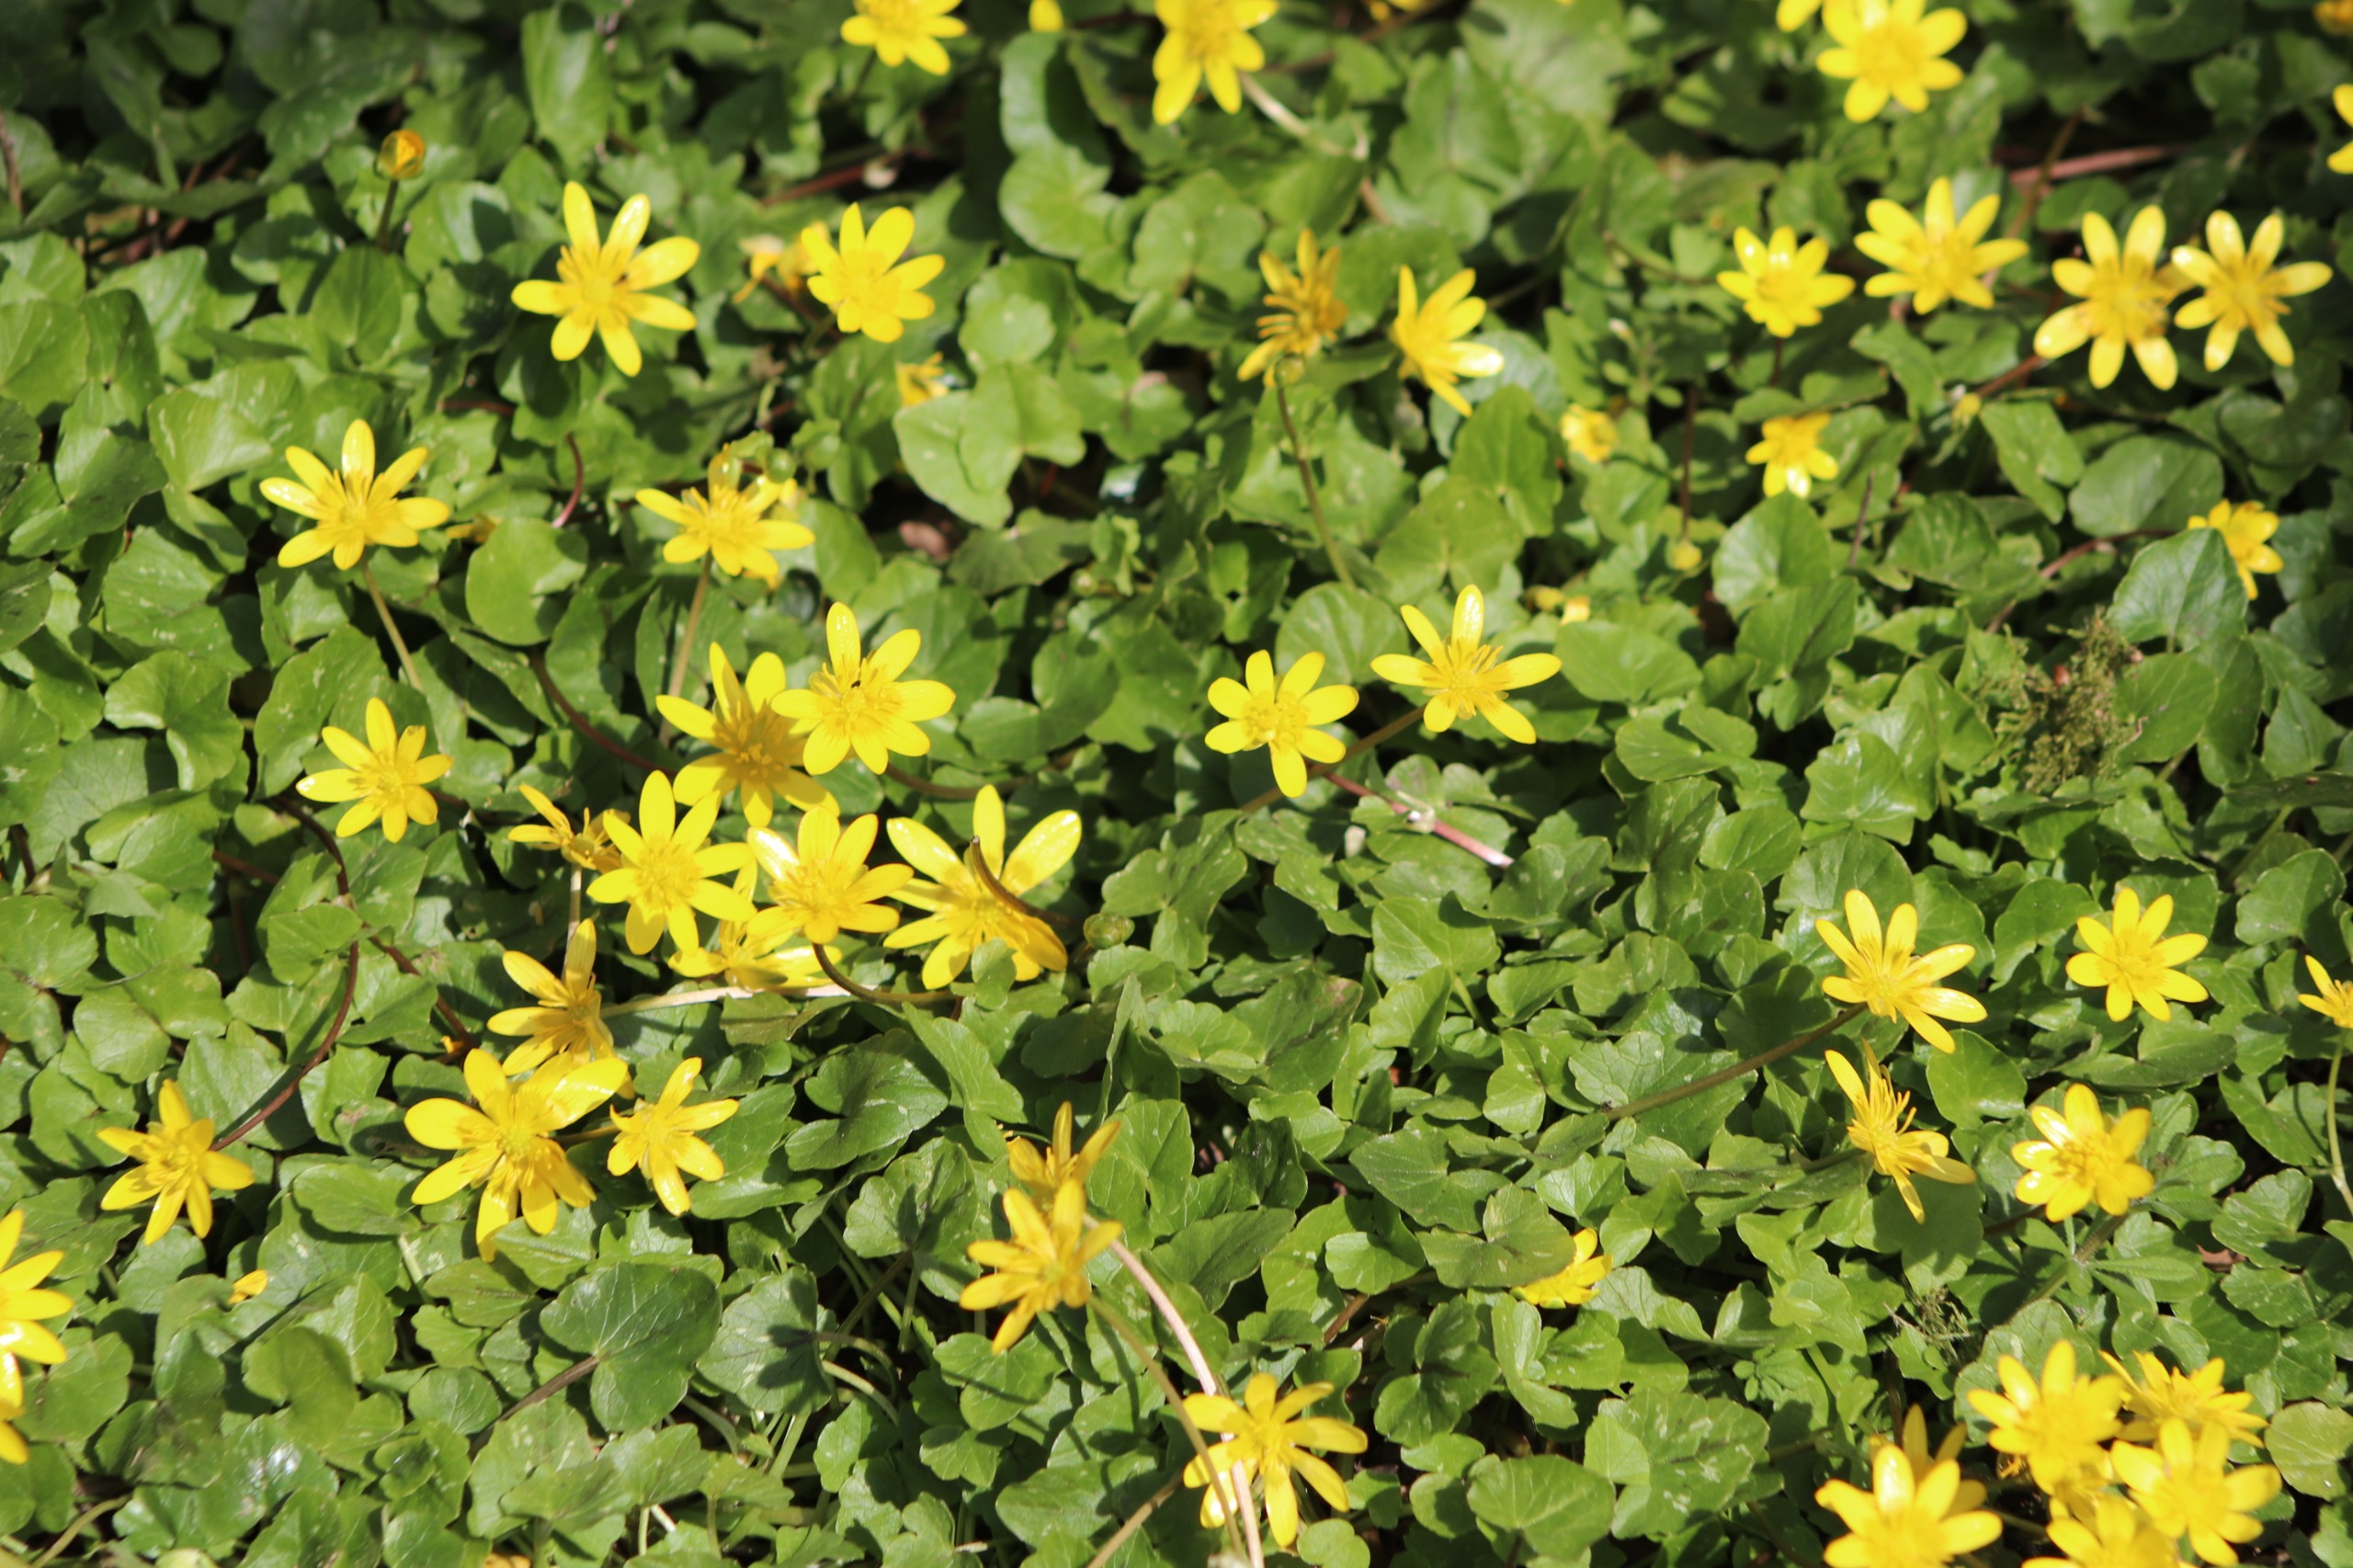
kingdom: Plantae
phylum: Tracheophyta
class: Magnoliopsida
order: Ranunculales
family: Ranunculaceae
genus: Ficaria
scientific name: Ficaria verna
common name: Vorterod
